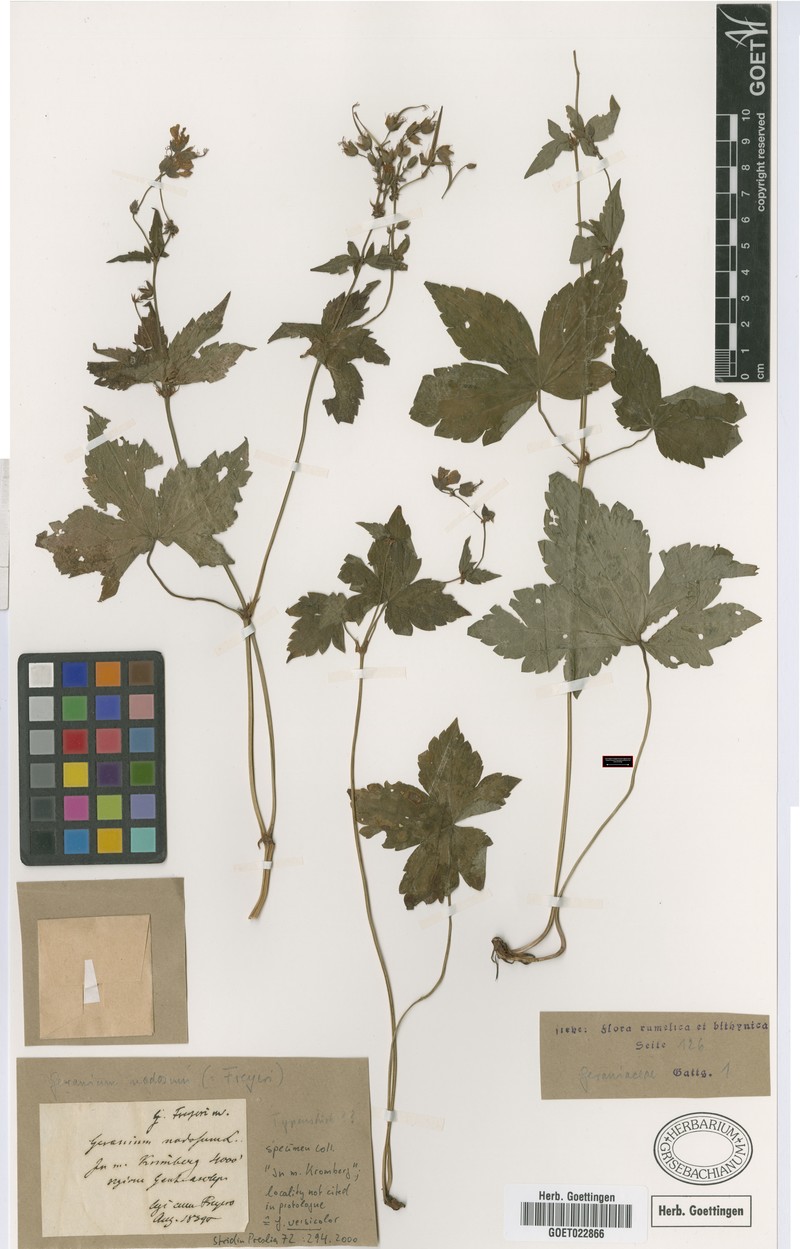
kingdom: Plantae
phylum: Tracheophyta
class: Magnoliopsida
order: Geraniales
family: Geraniaceae
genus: Geranium
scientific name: Geranium nodosum
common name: Knotted crane's-bill
